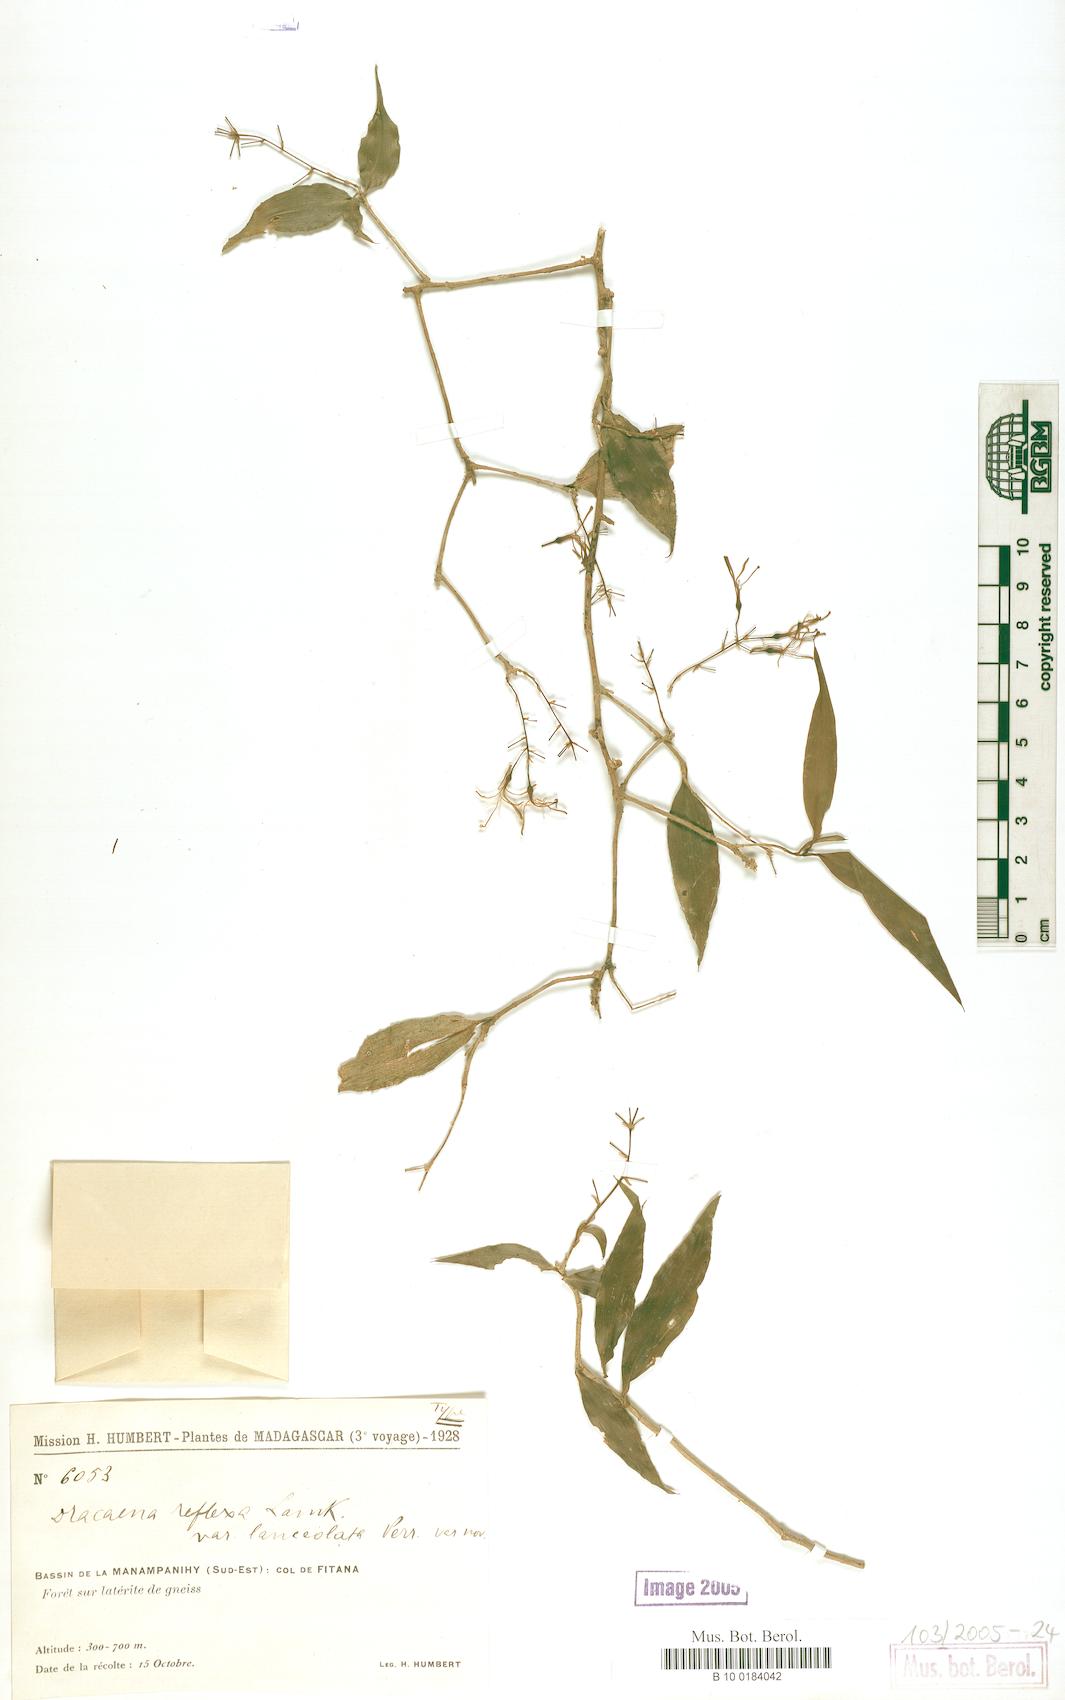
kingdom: Plantae
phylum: Tracheophyta
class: Liliopsida
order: Asparagales
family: Asparagaceae
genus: Dracaena
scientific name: Dracaena reflexa
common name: Song-of-india
